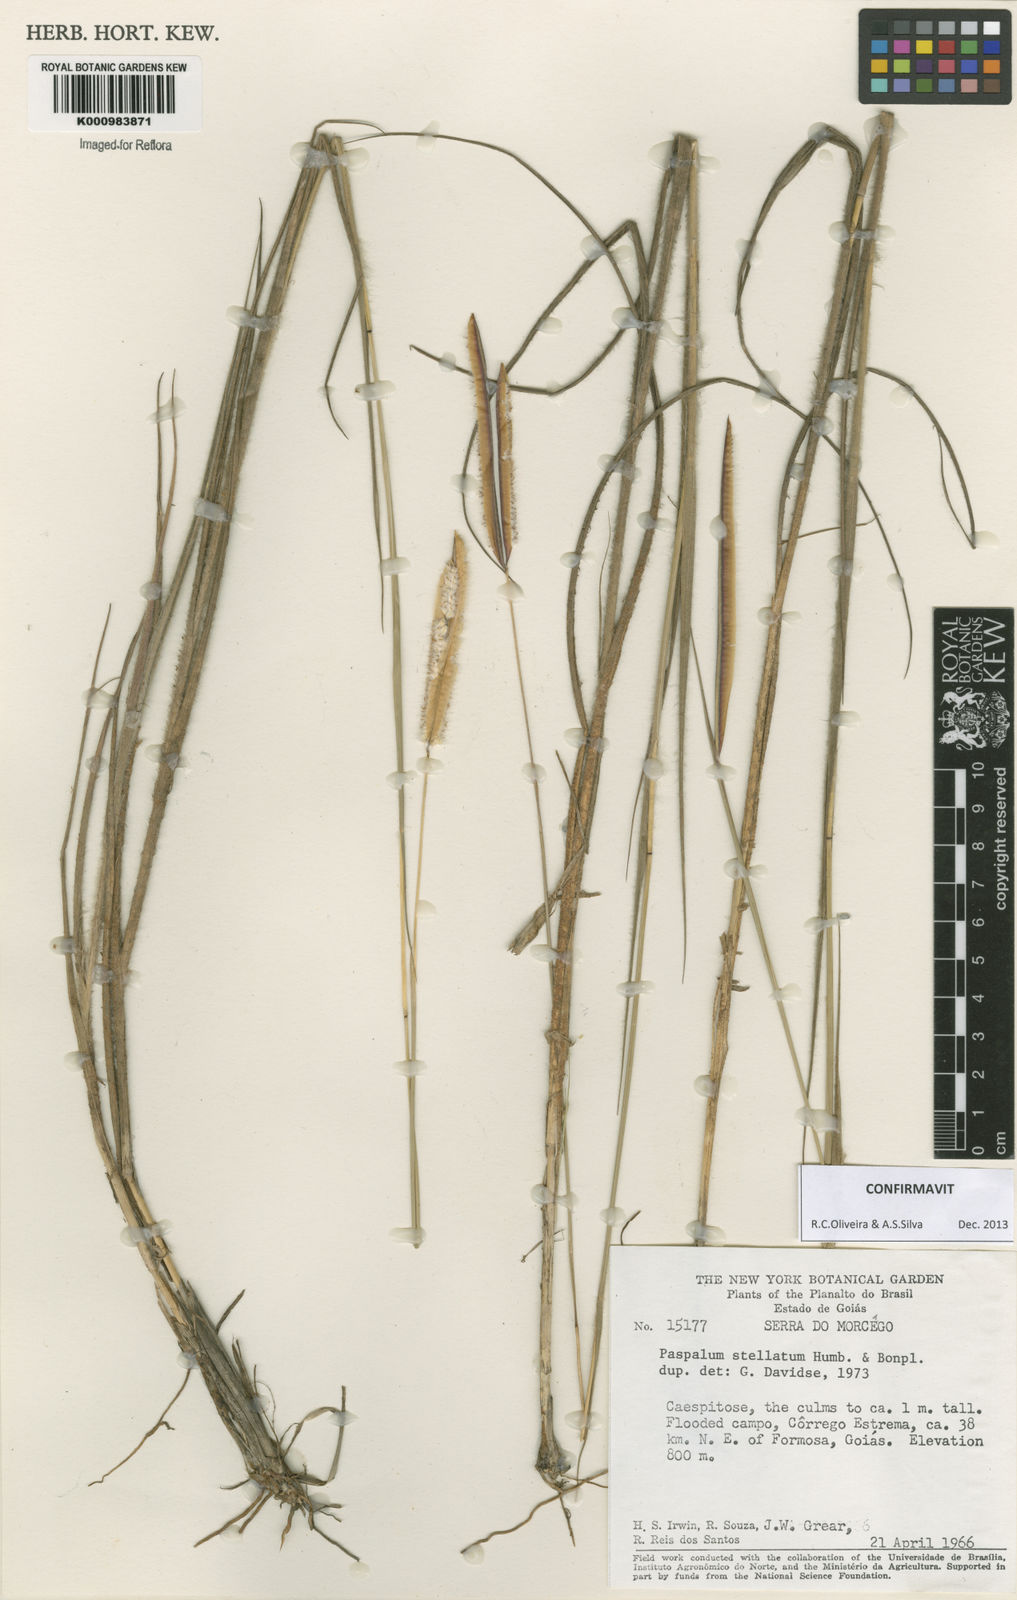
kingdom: Plantae
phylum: Tracheophyta
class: Liliopsida
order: Poales
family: Poaceae
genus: Paspalum
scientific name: Paspalum
